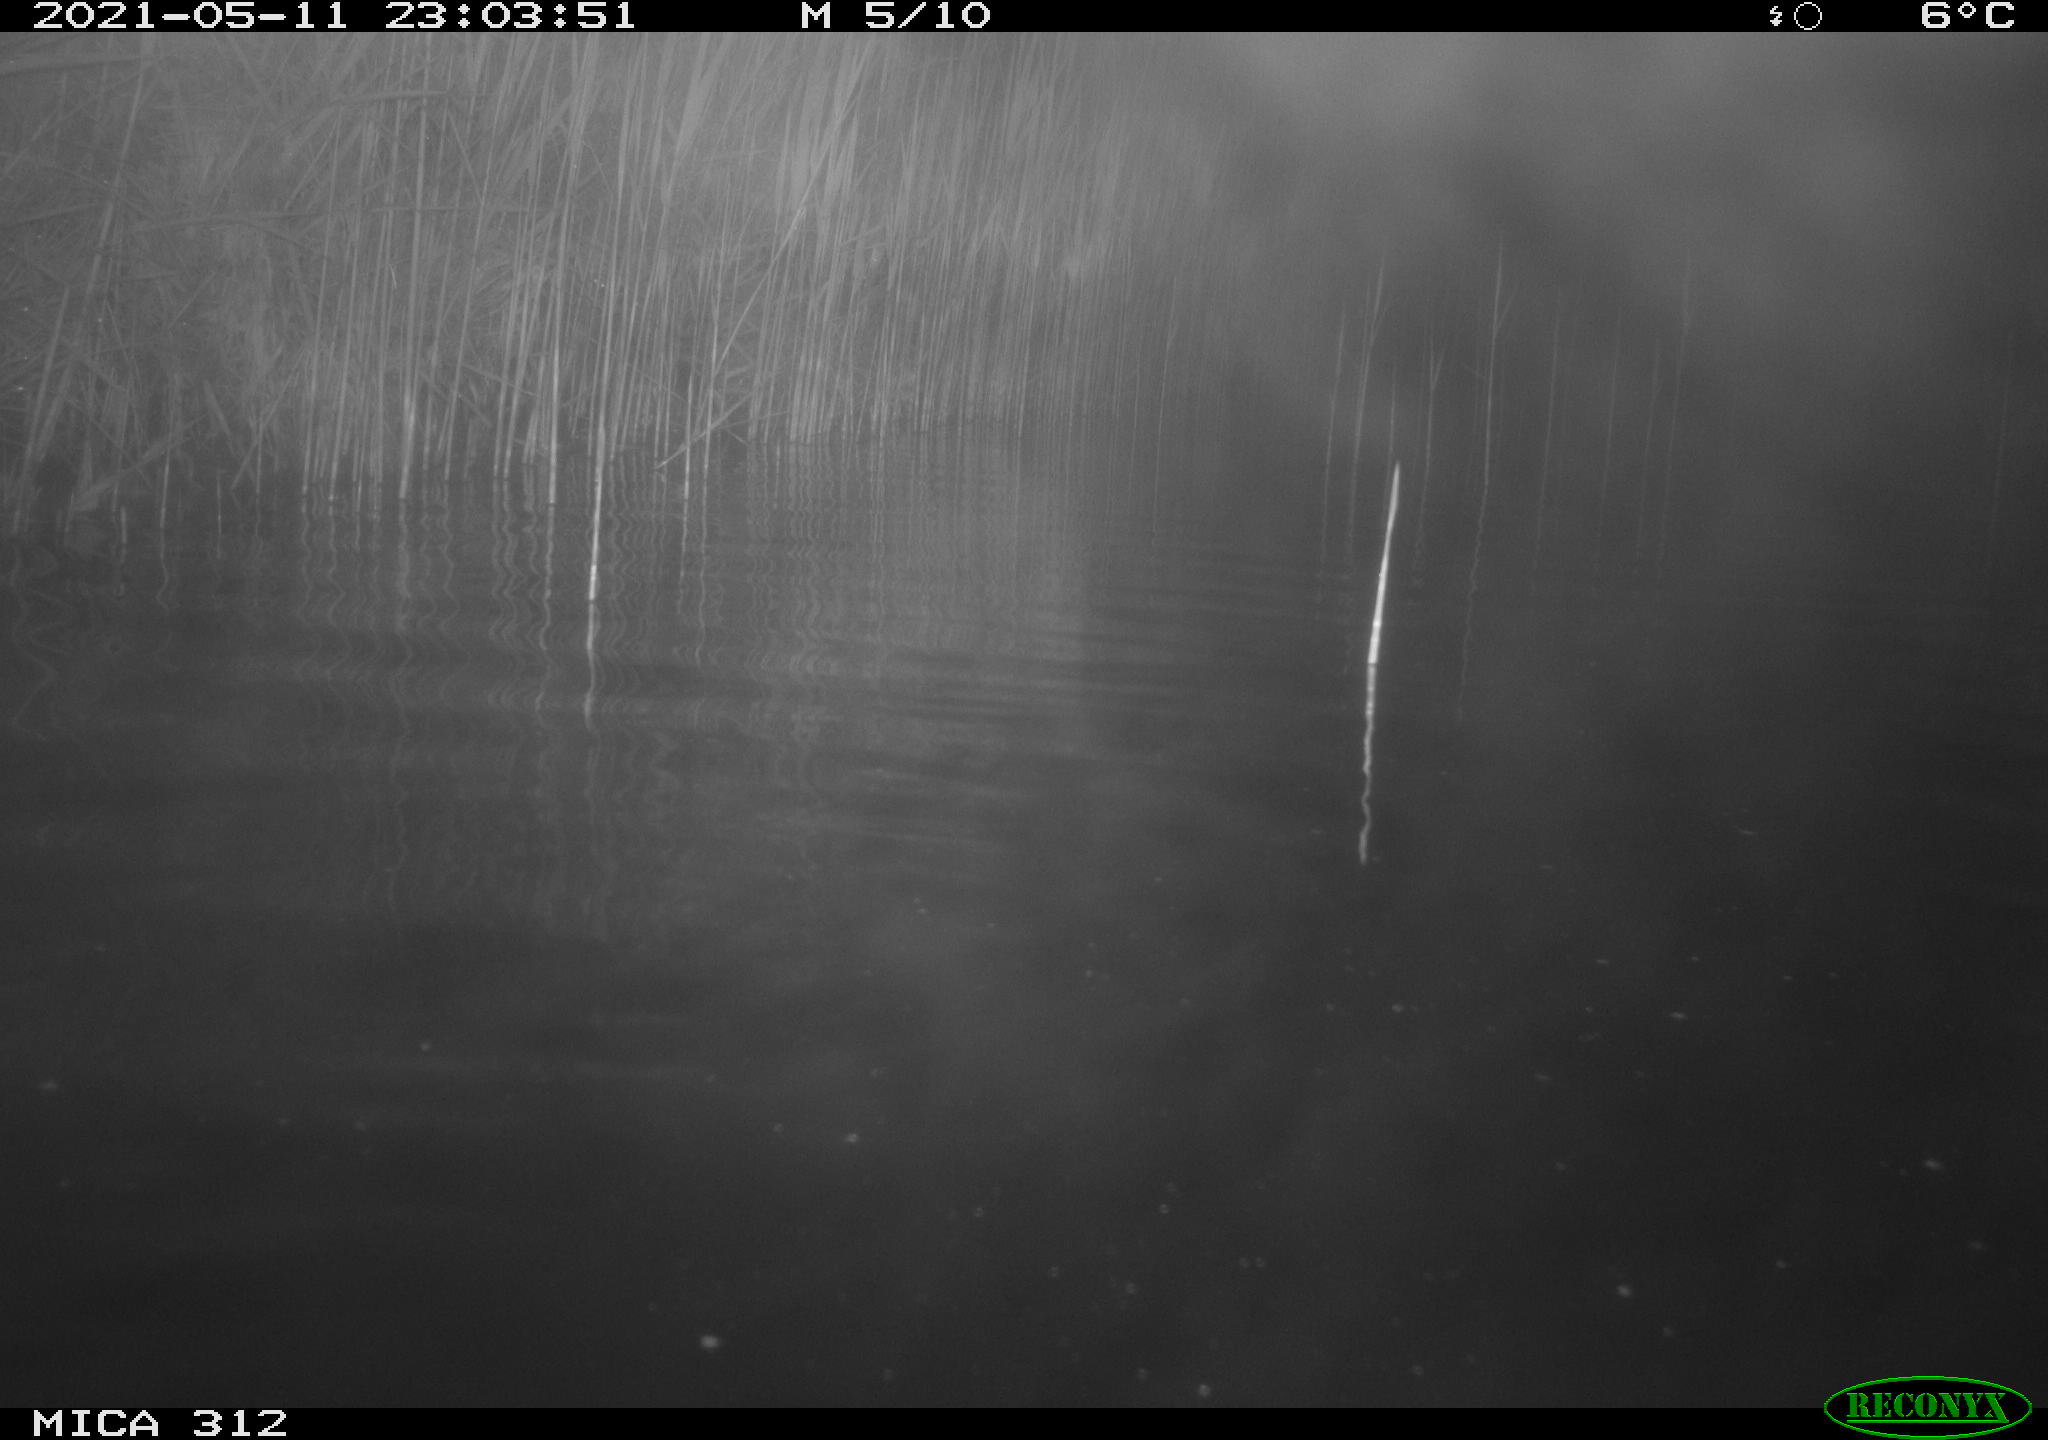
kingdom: Animalia
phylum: Chordata
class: Mammalia
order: Rodentia
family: Cricetidae
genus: Ondatra
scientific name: Ondatra zibethicus
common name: Muskrat
